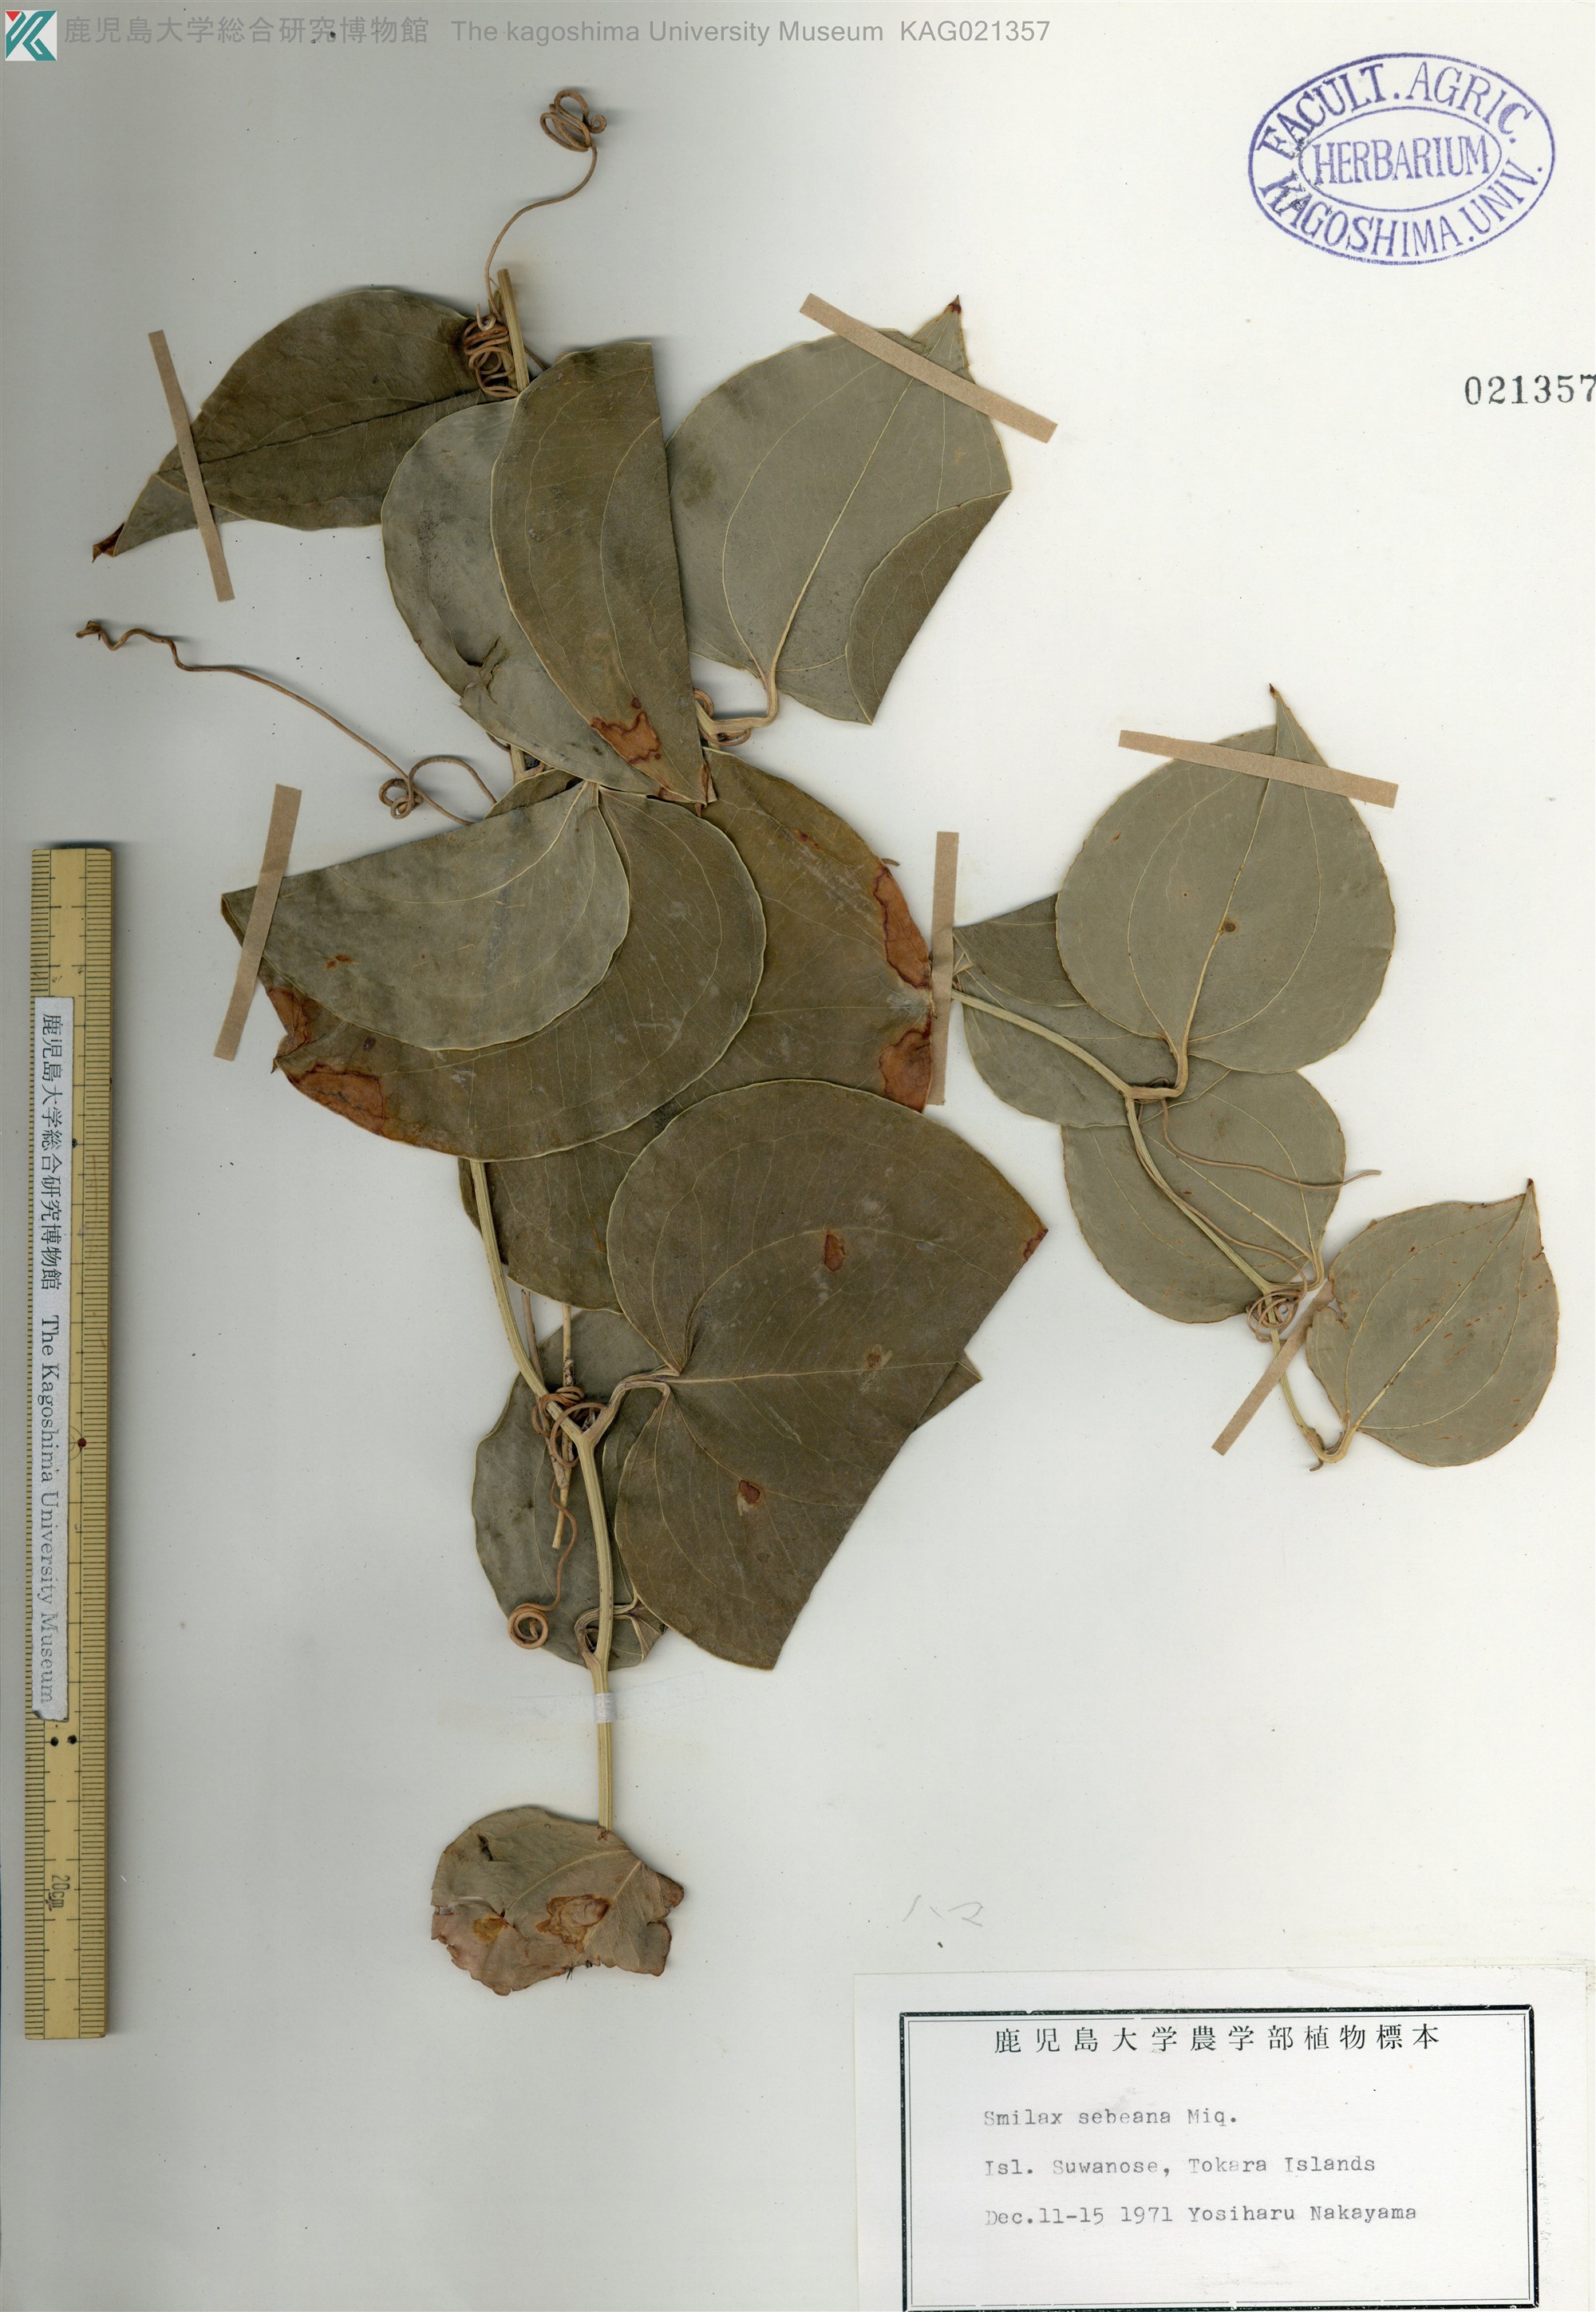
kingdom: Plantae
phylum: Tracheophyta
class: Liliopsida
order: Liliales
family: Smilacaceae
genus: Smilax
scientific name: Smilax sebeana
